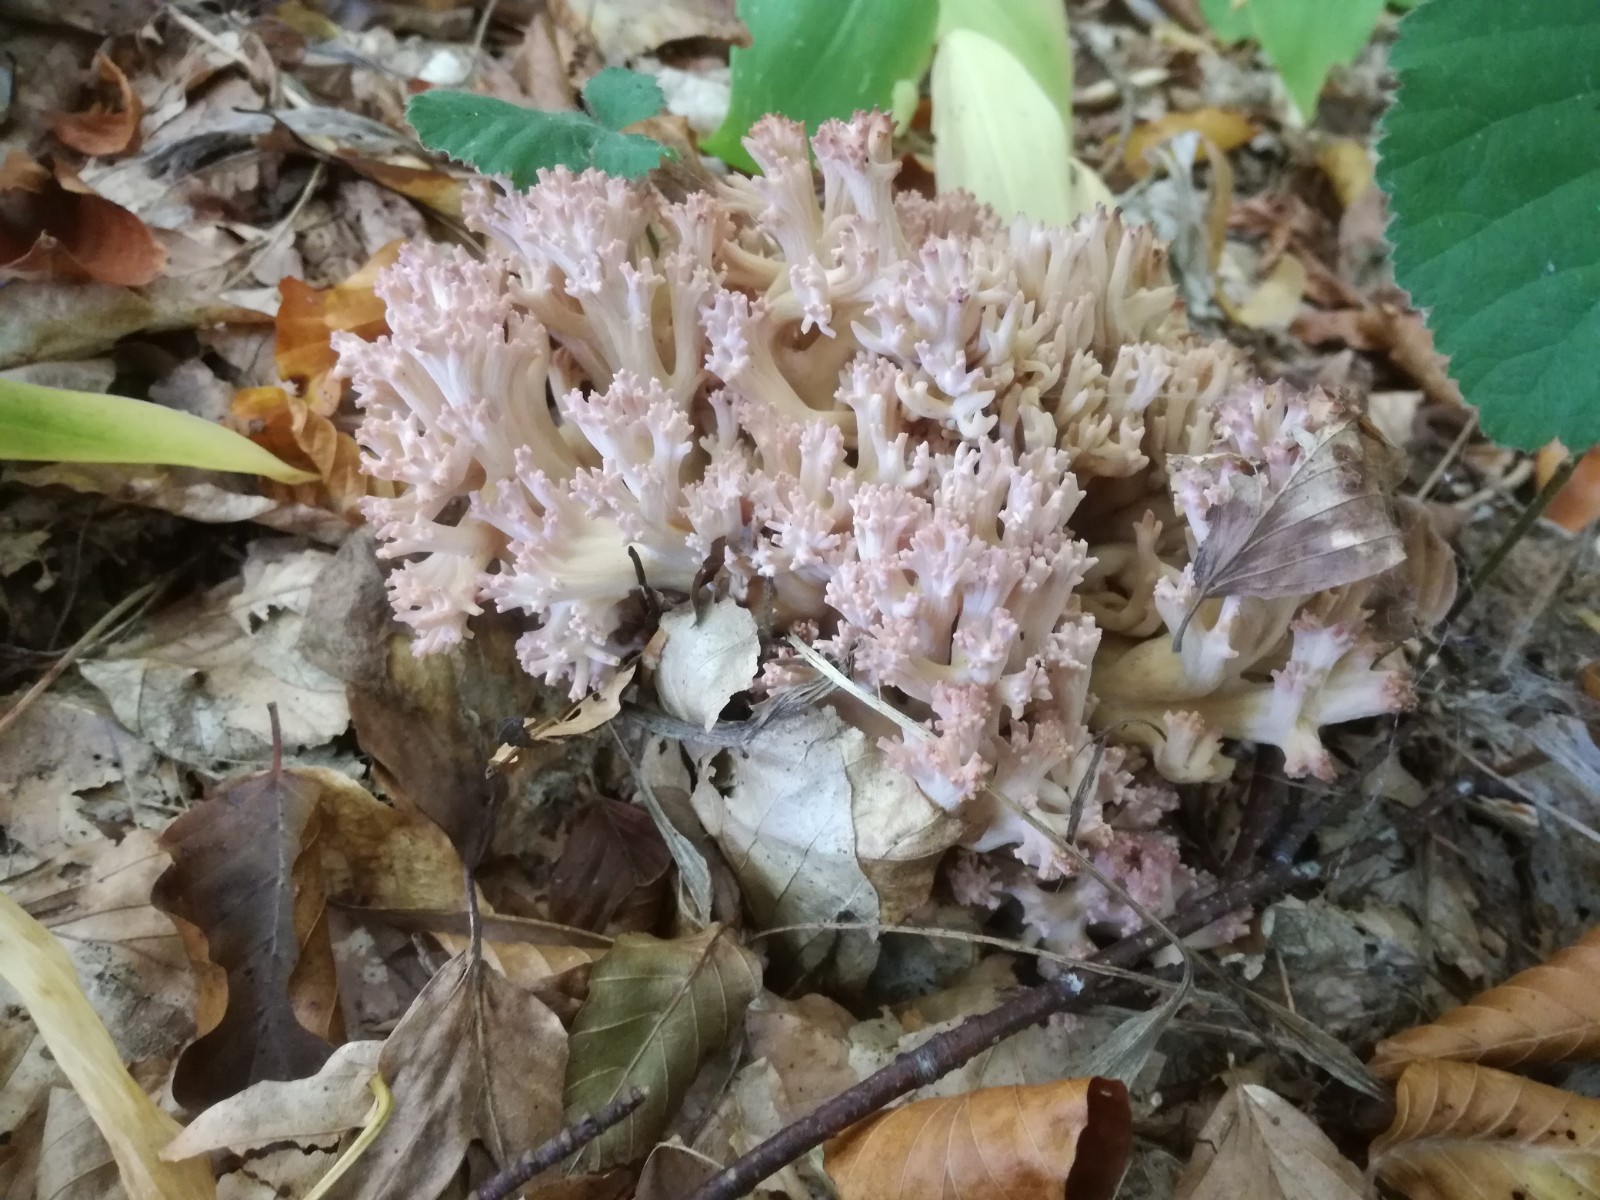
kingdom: Fungi
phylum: Basidiomycota
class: Agaricomycetes
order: Gomphales
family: Gomphaceae
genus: Ramaria
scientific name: Ramaria botrytis
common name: drue-koralsvamp
